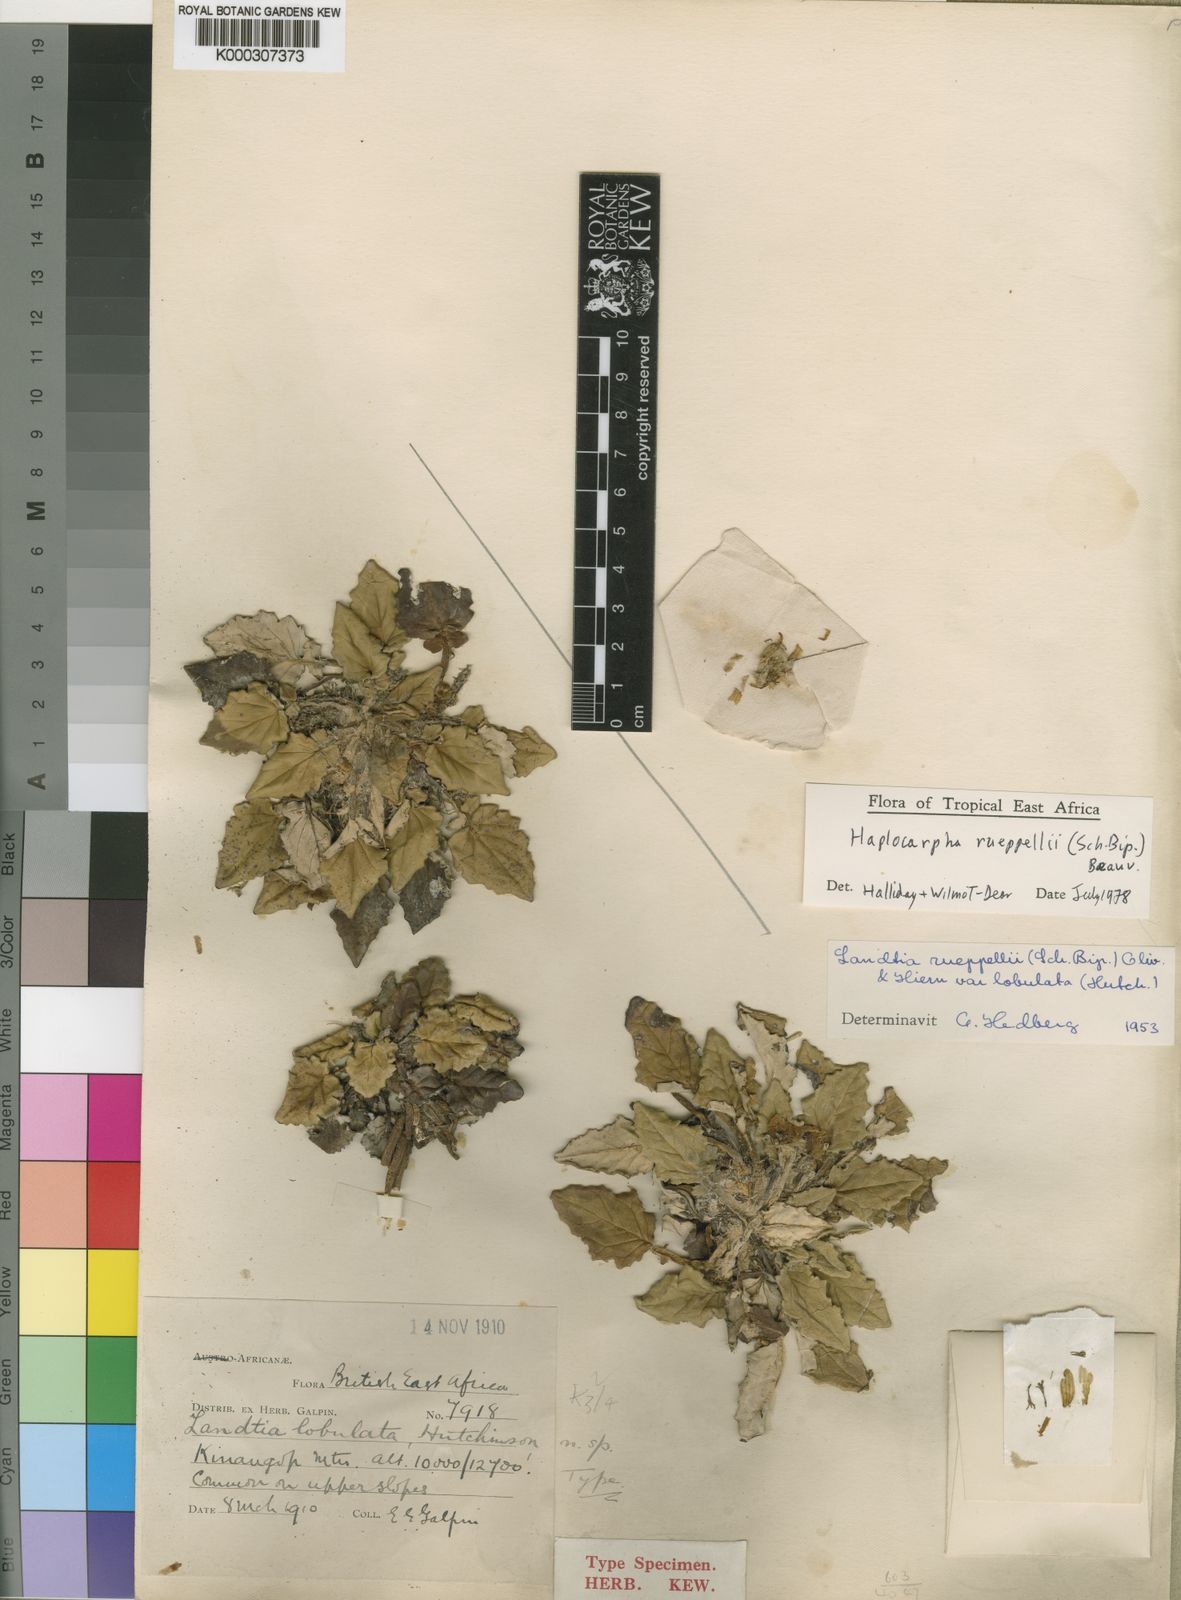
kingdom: Plantae
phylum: Tracheophyta
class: Magnoliopsida
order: Asterales
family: Asteraceae
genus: Haplocarpha
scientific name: Haplocarpha rueppelii
